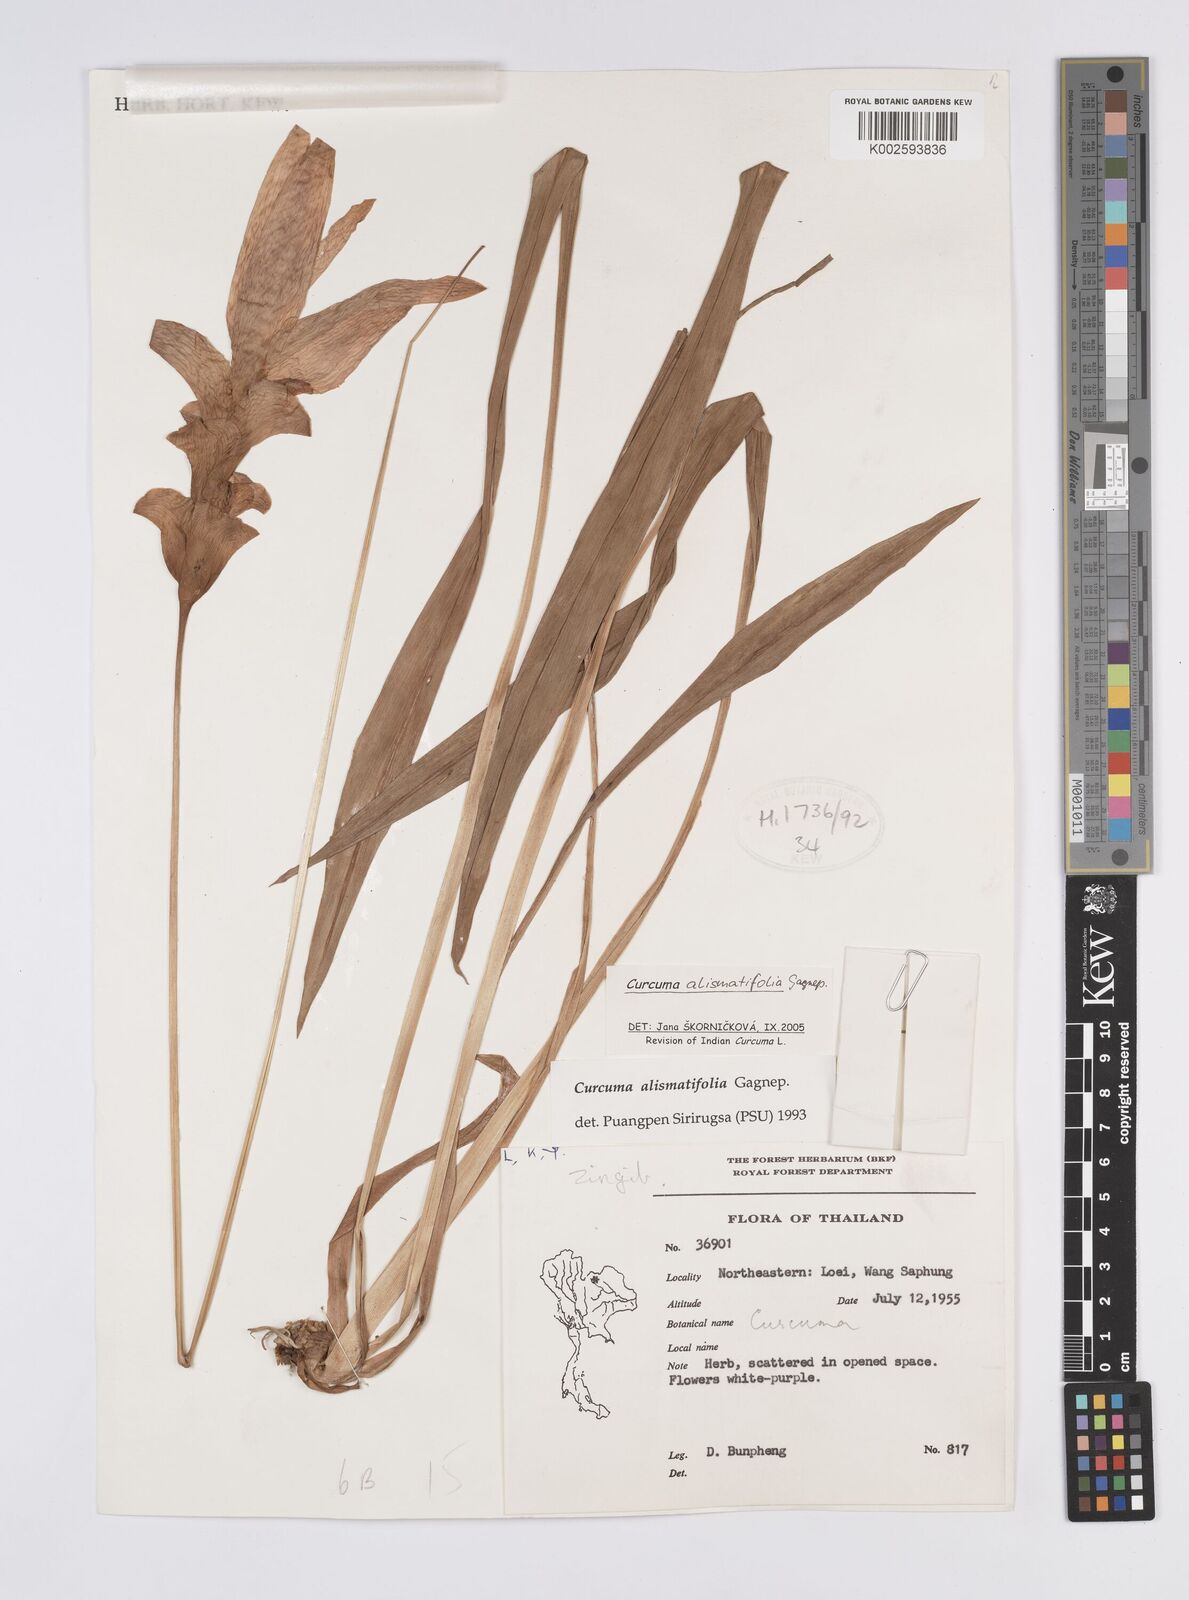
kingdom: Plantae
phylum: Tracheophyta
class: Liliopsida
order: Zingiberales
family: Zingiberaceae
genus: Curcuma
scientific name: Curcuma alismatifolia
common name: Siam tulip
